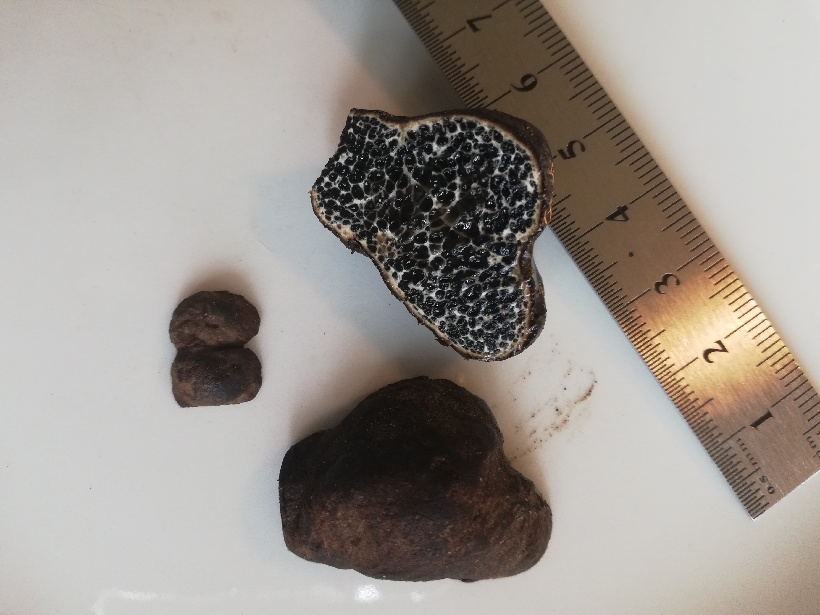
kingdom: Fungi
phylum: Basidiomycota
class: Agaricomycetes
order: Boletales
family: Paxillaceae
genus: Melanogaster
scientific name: Melanogaster ambiguus
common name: lille slimtrøffel
